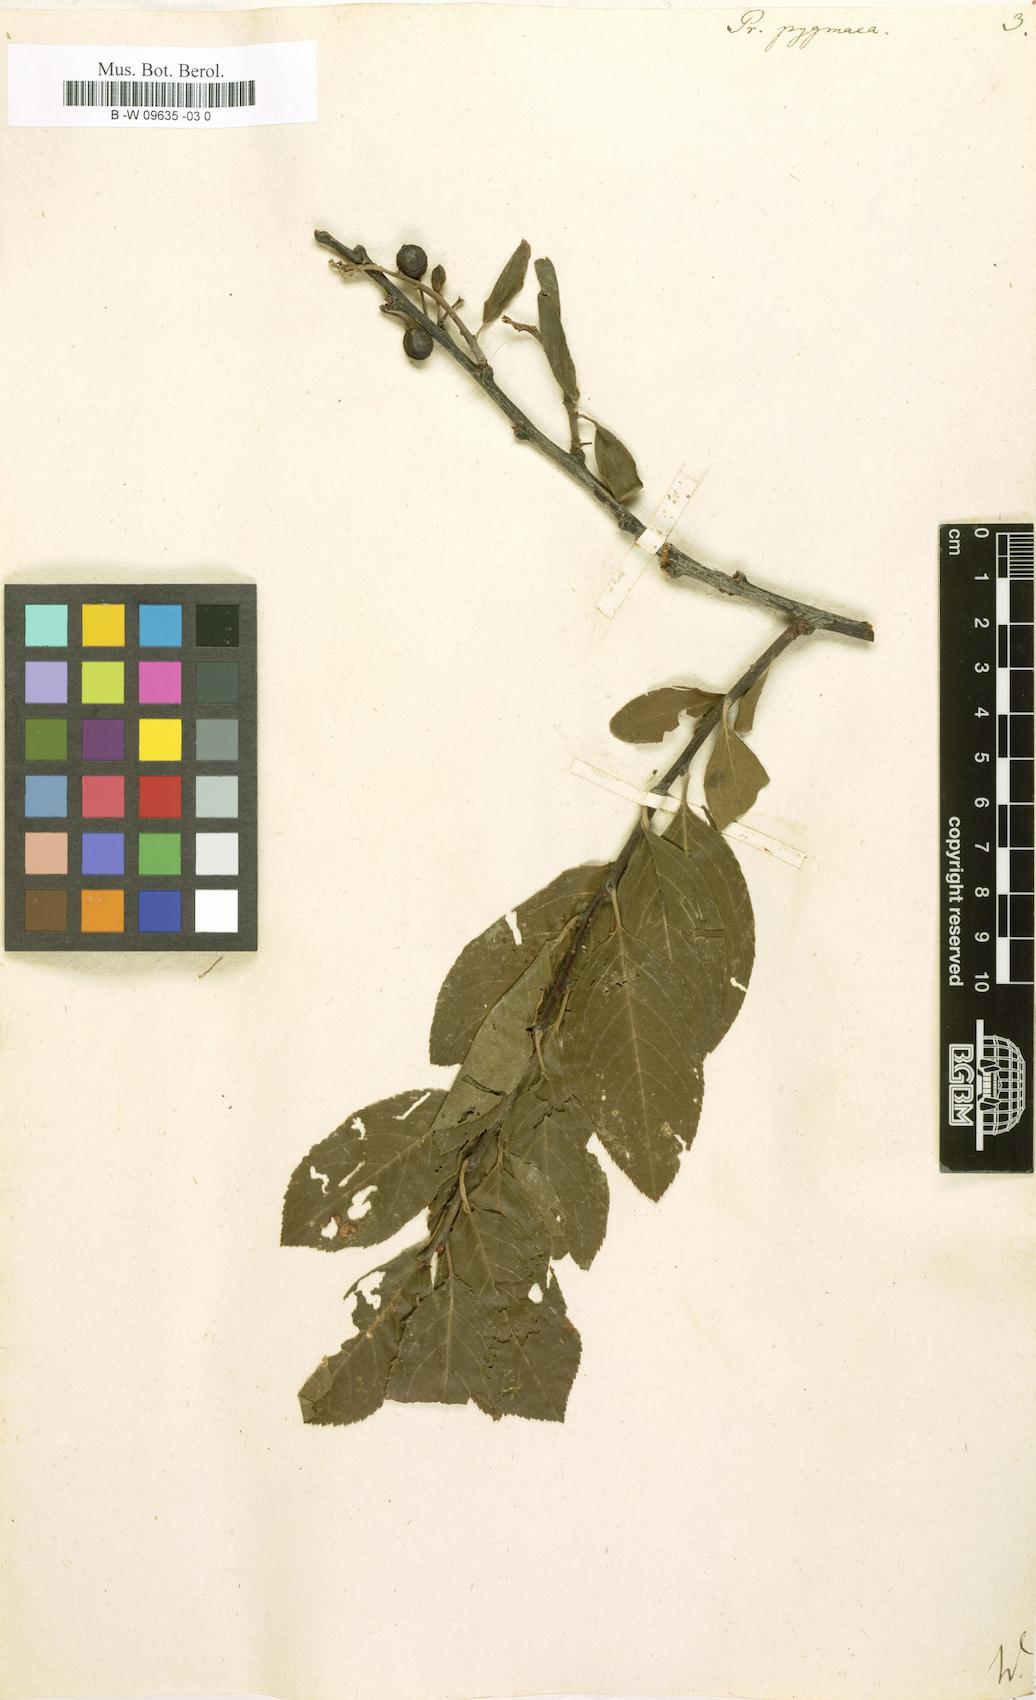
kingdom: Plantae
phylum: Tracheophyta
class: Magnoliopsida
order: Rosales
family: Rosaceae
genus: Prunus
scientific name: Prunus maritima
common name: Beach plum
